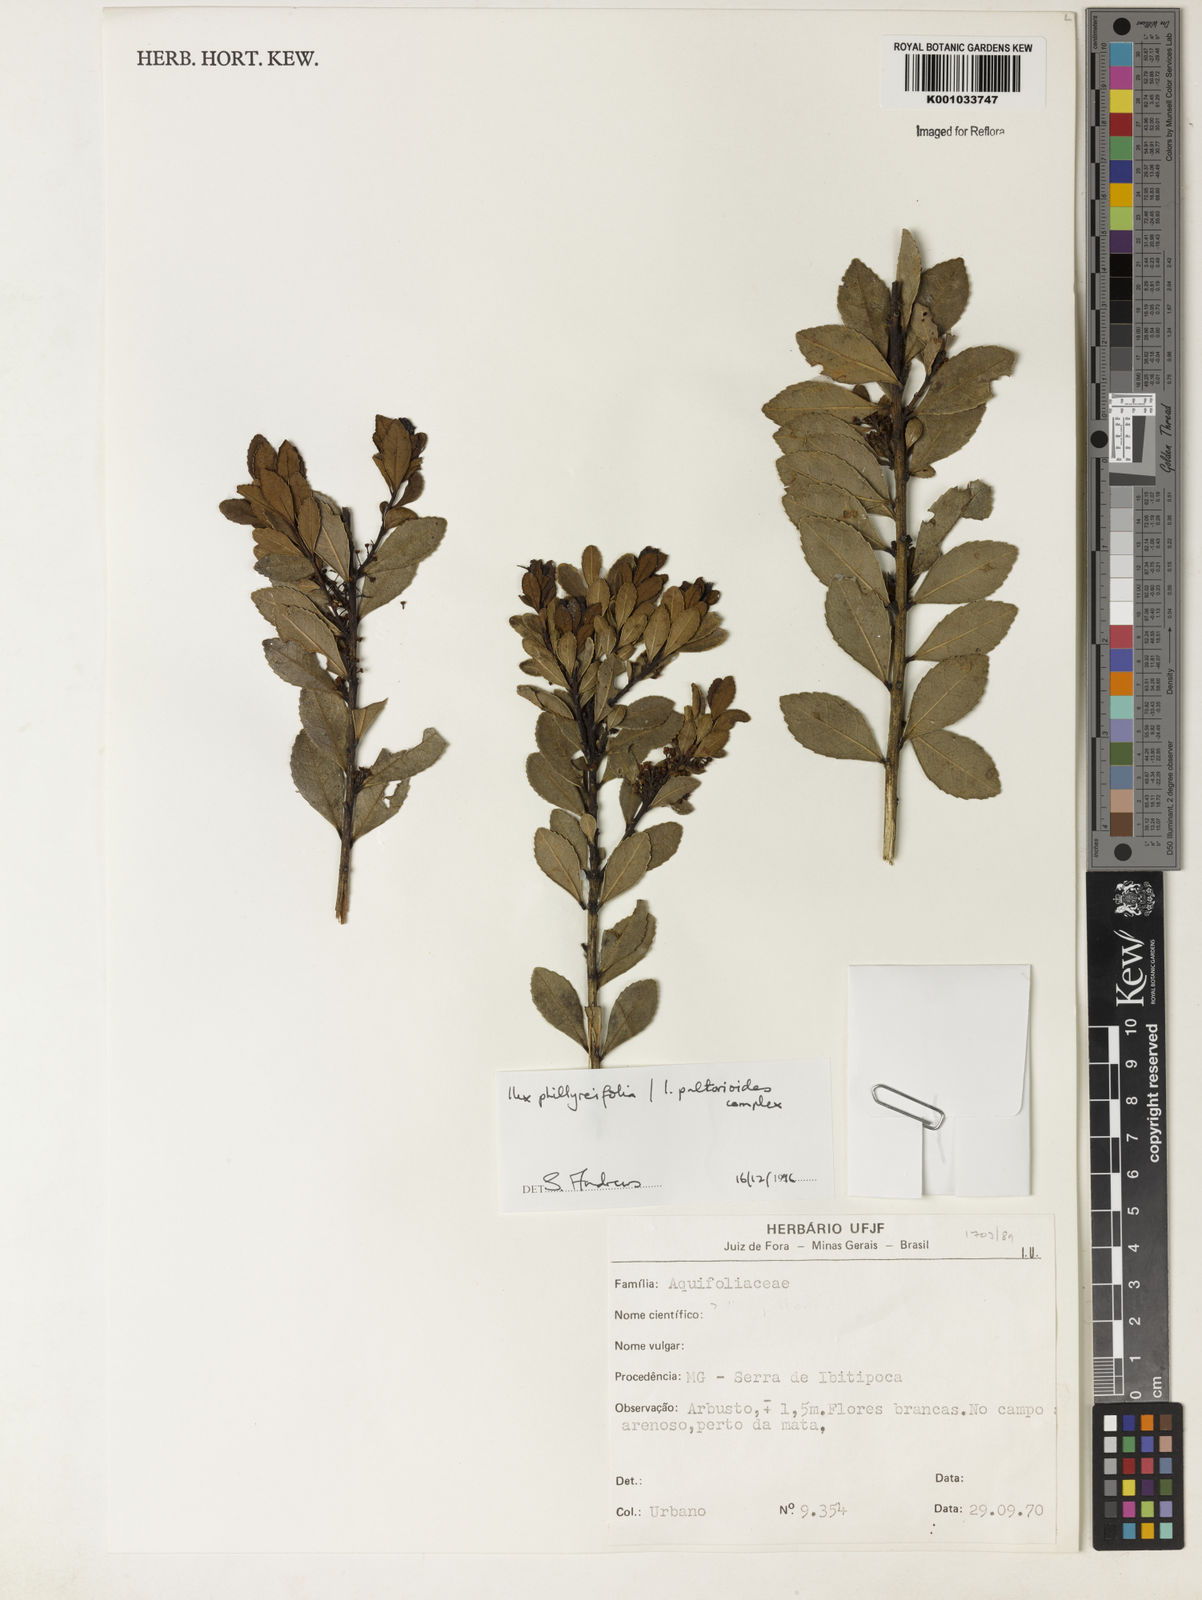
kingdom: Plantae
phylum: Tracheophyta
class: Magnoliopsida
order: Aquifoliales
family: Aquifoliaceae
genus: Ilex
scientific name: Ilex
